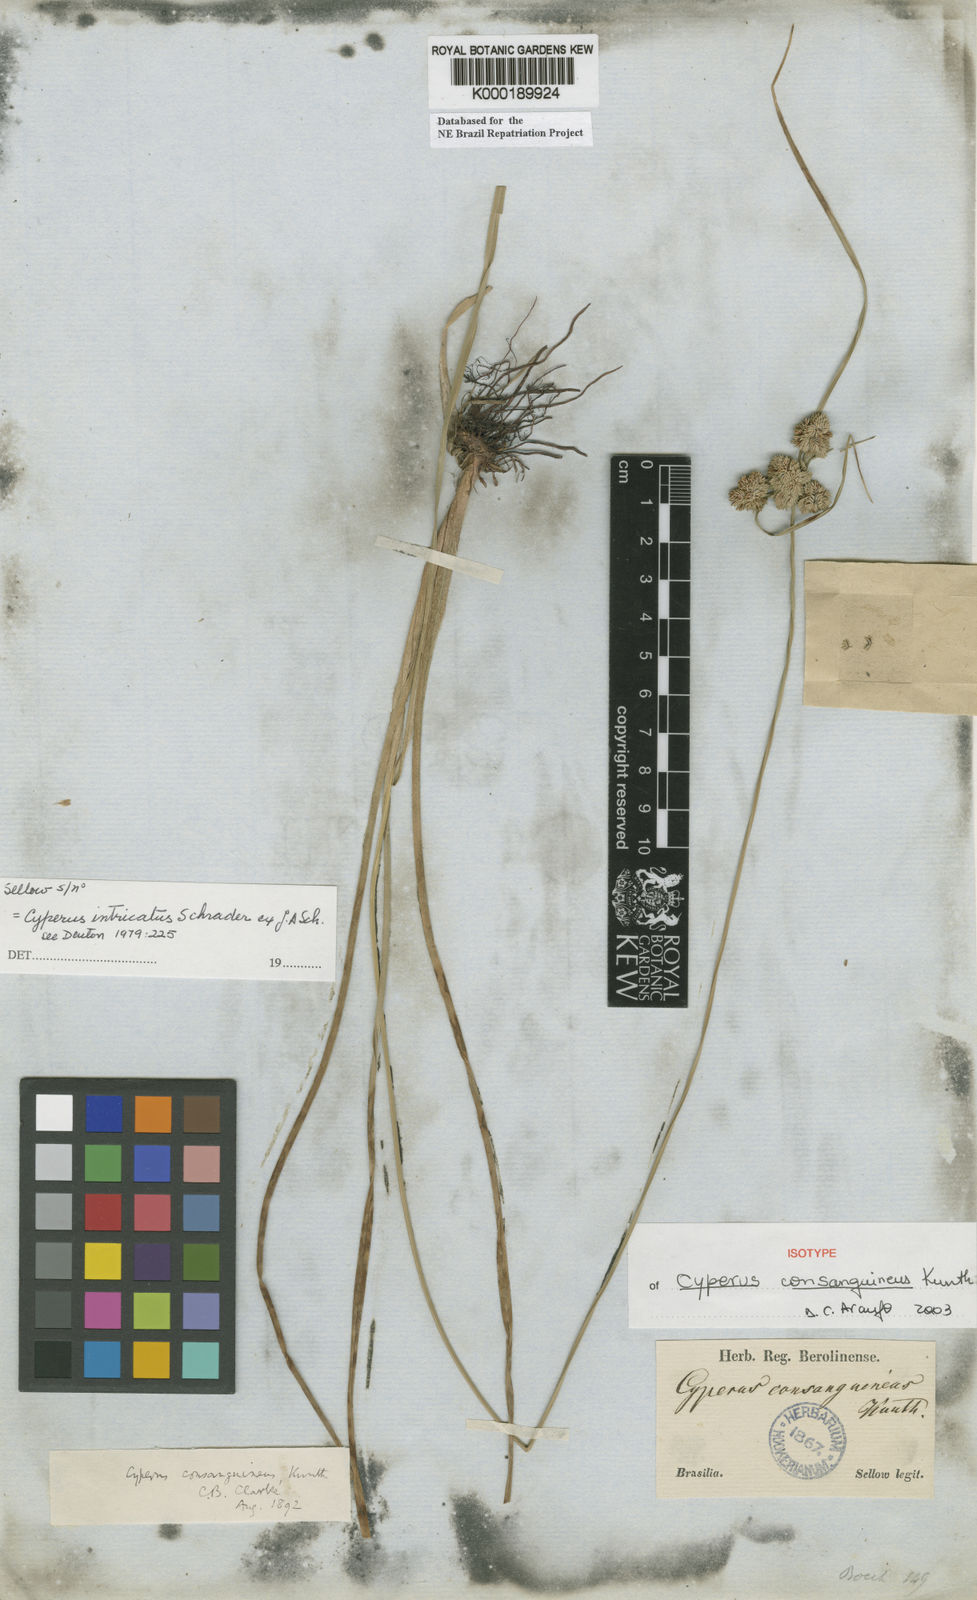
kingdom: Plantae
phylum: Tracheophyta
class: Liliopsida
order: Poales
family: Cyperaceae
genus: Cyperus
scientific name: Cyperus intricatus
